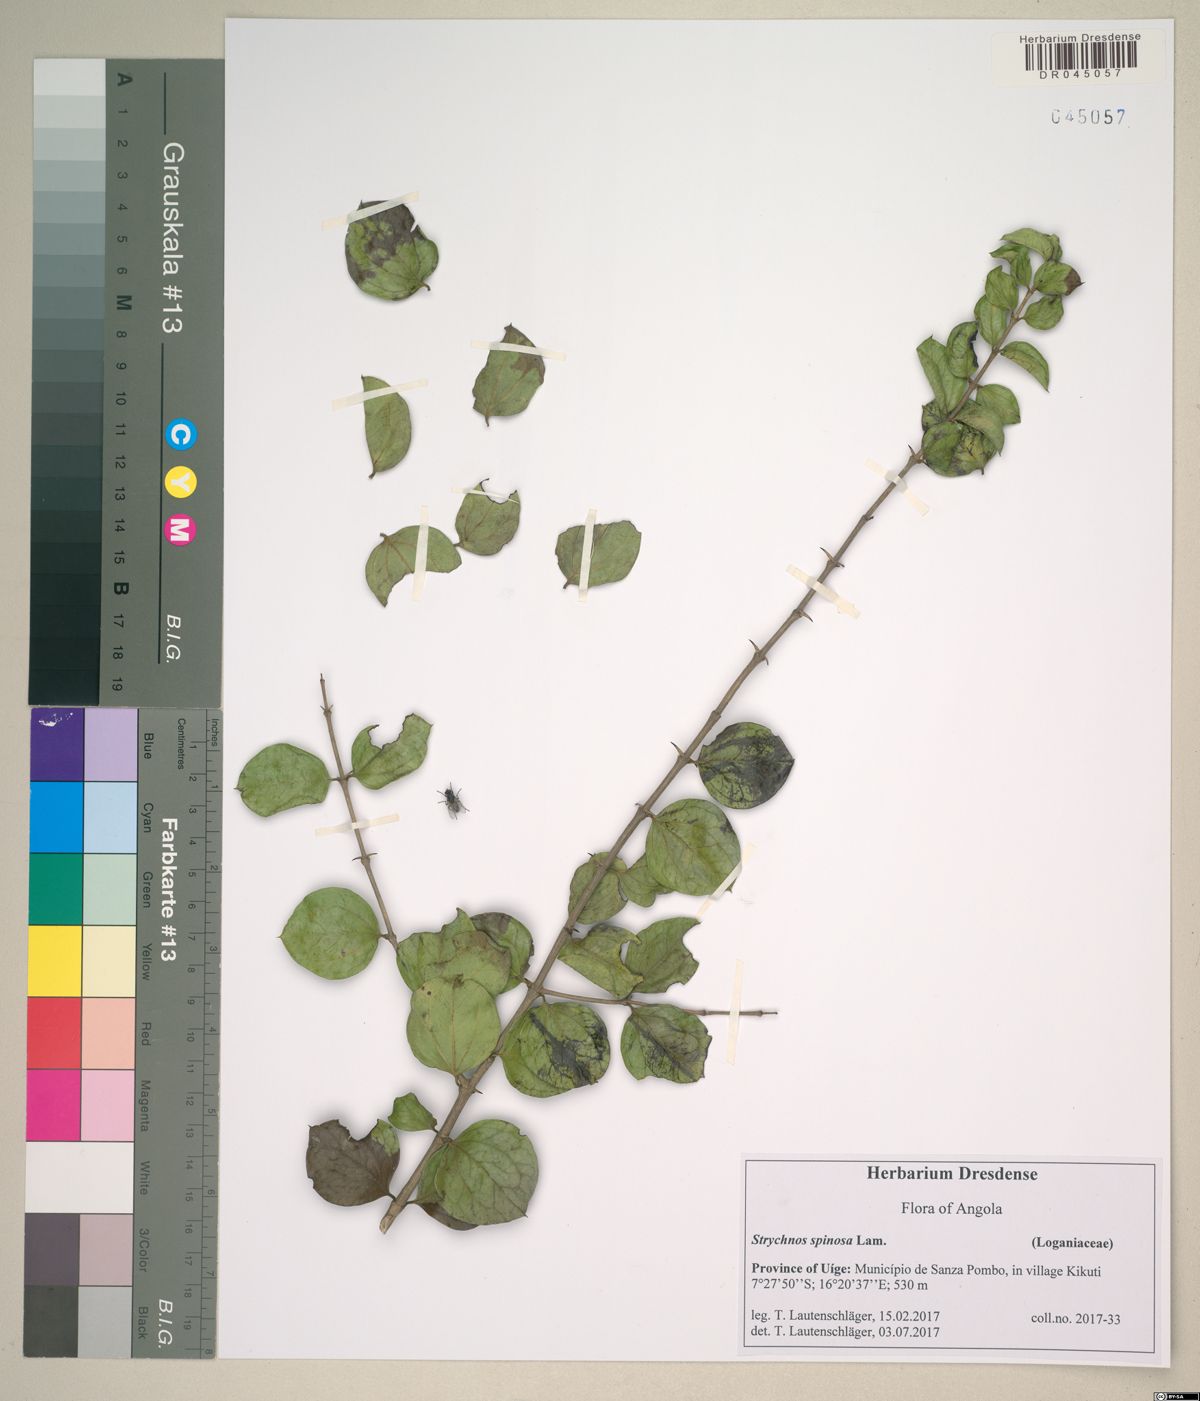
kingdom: Plantae
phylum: Tracheophyta
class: Magnoliopsida
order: Gentianales
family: Loganiaceae
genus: Strychnos
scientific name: Strychnos cocculoides
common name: Corky-bark monkey-orange
